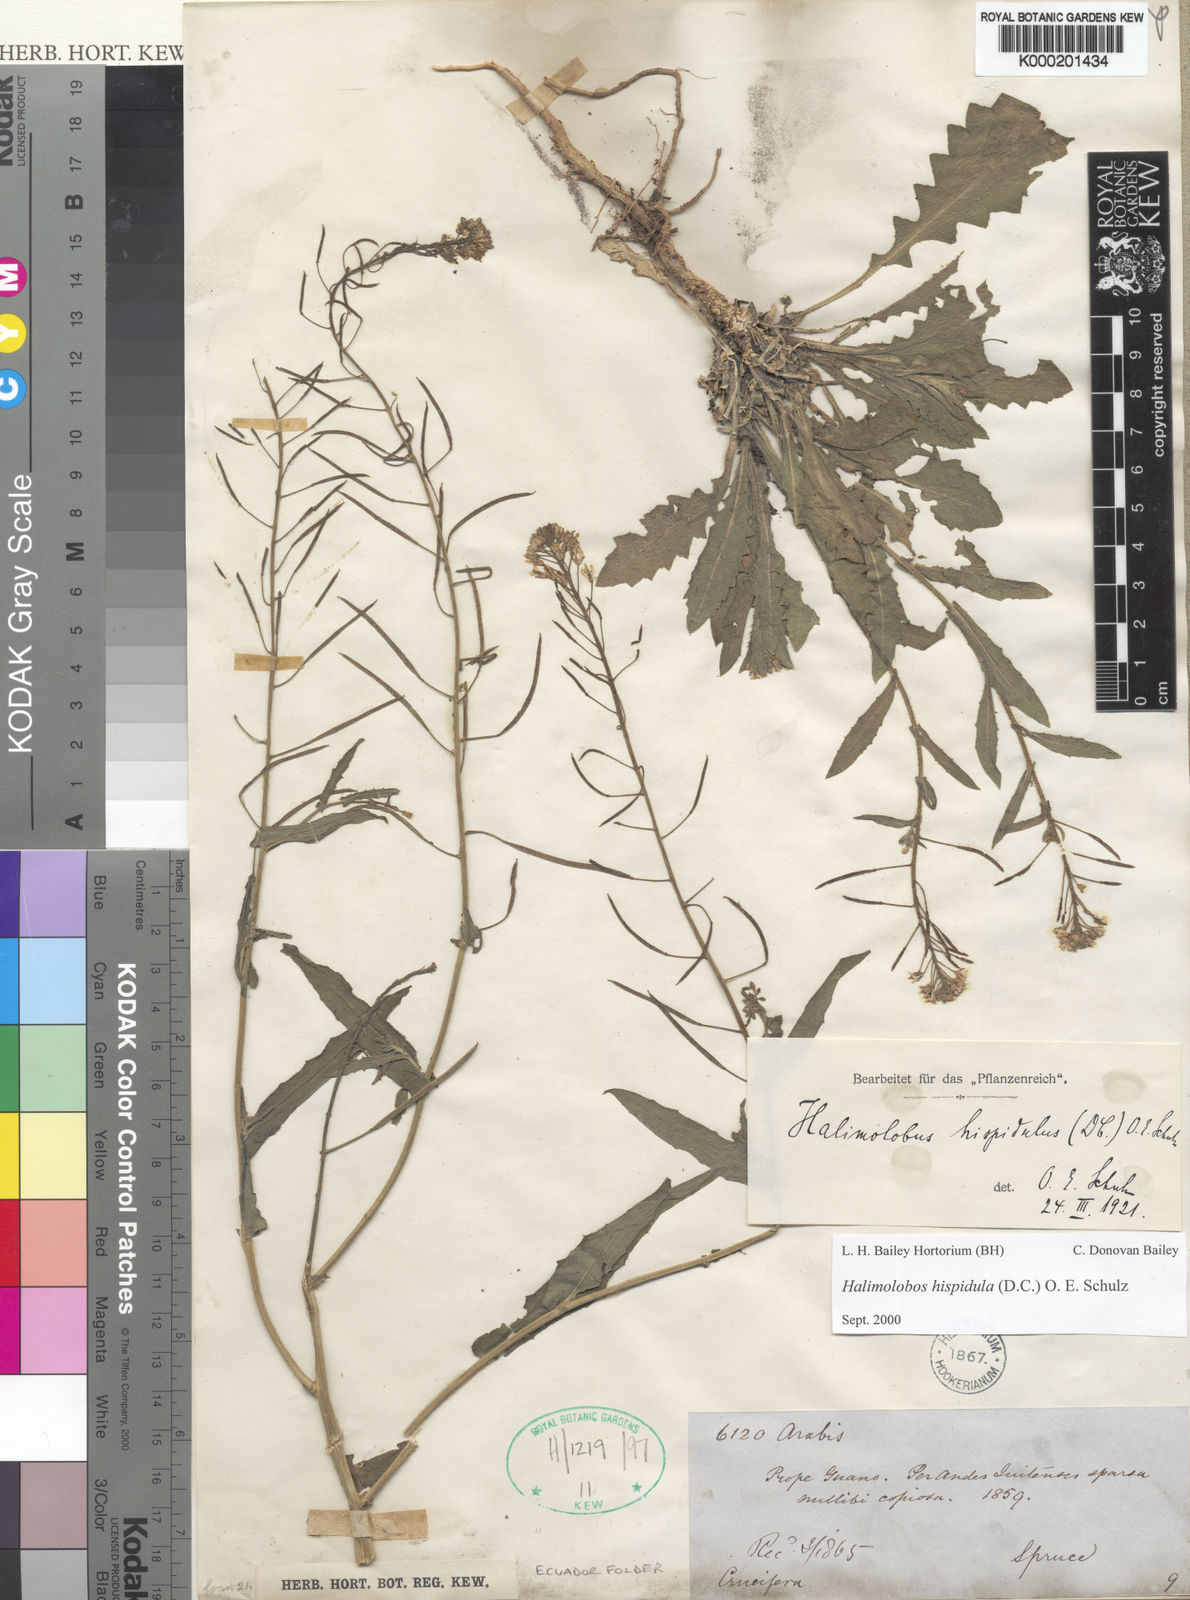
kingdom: Plantae
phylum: Tracheophyta
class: Magnoliopsida
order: Brassicales
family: Brassicaceae
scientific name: Brassicaceae
